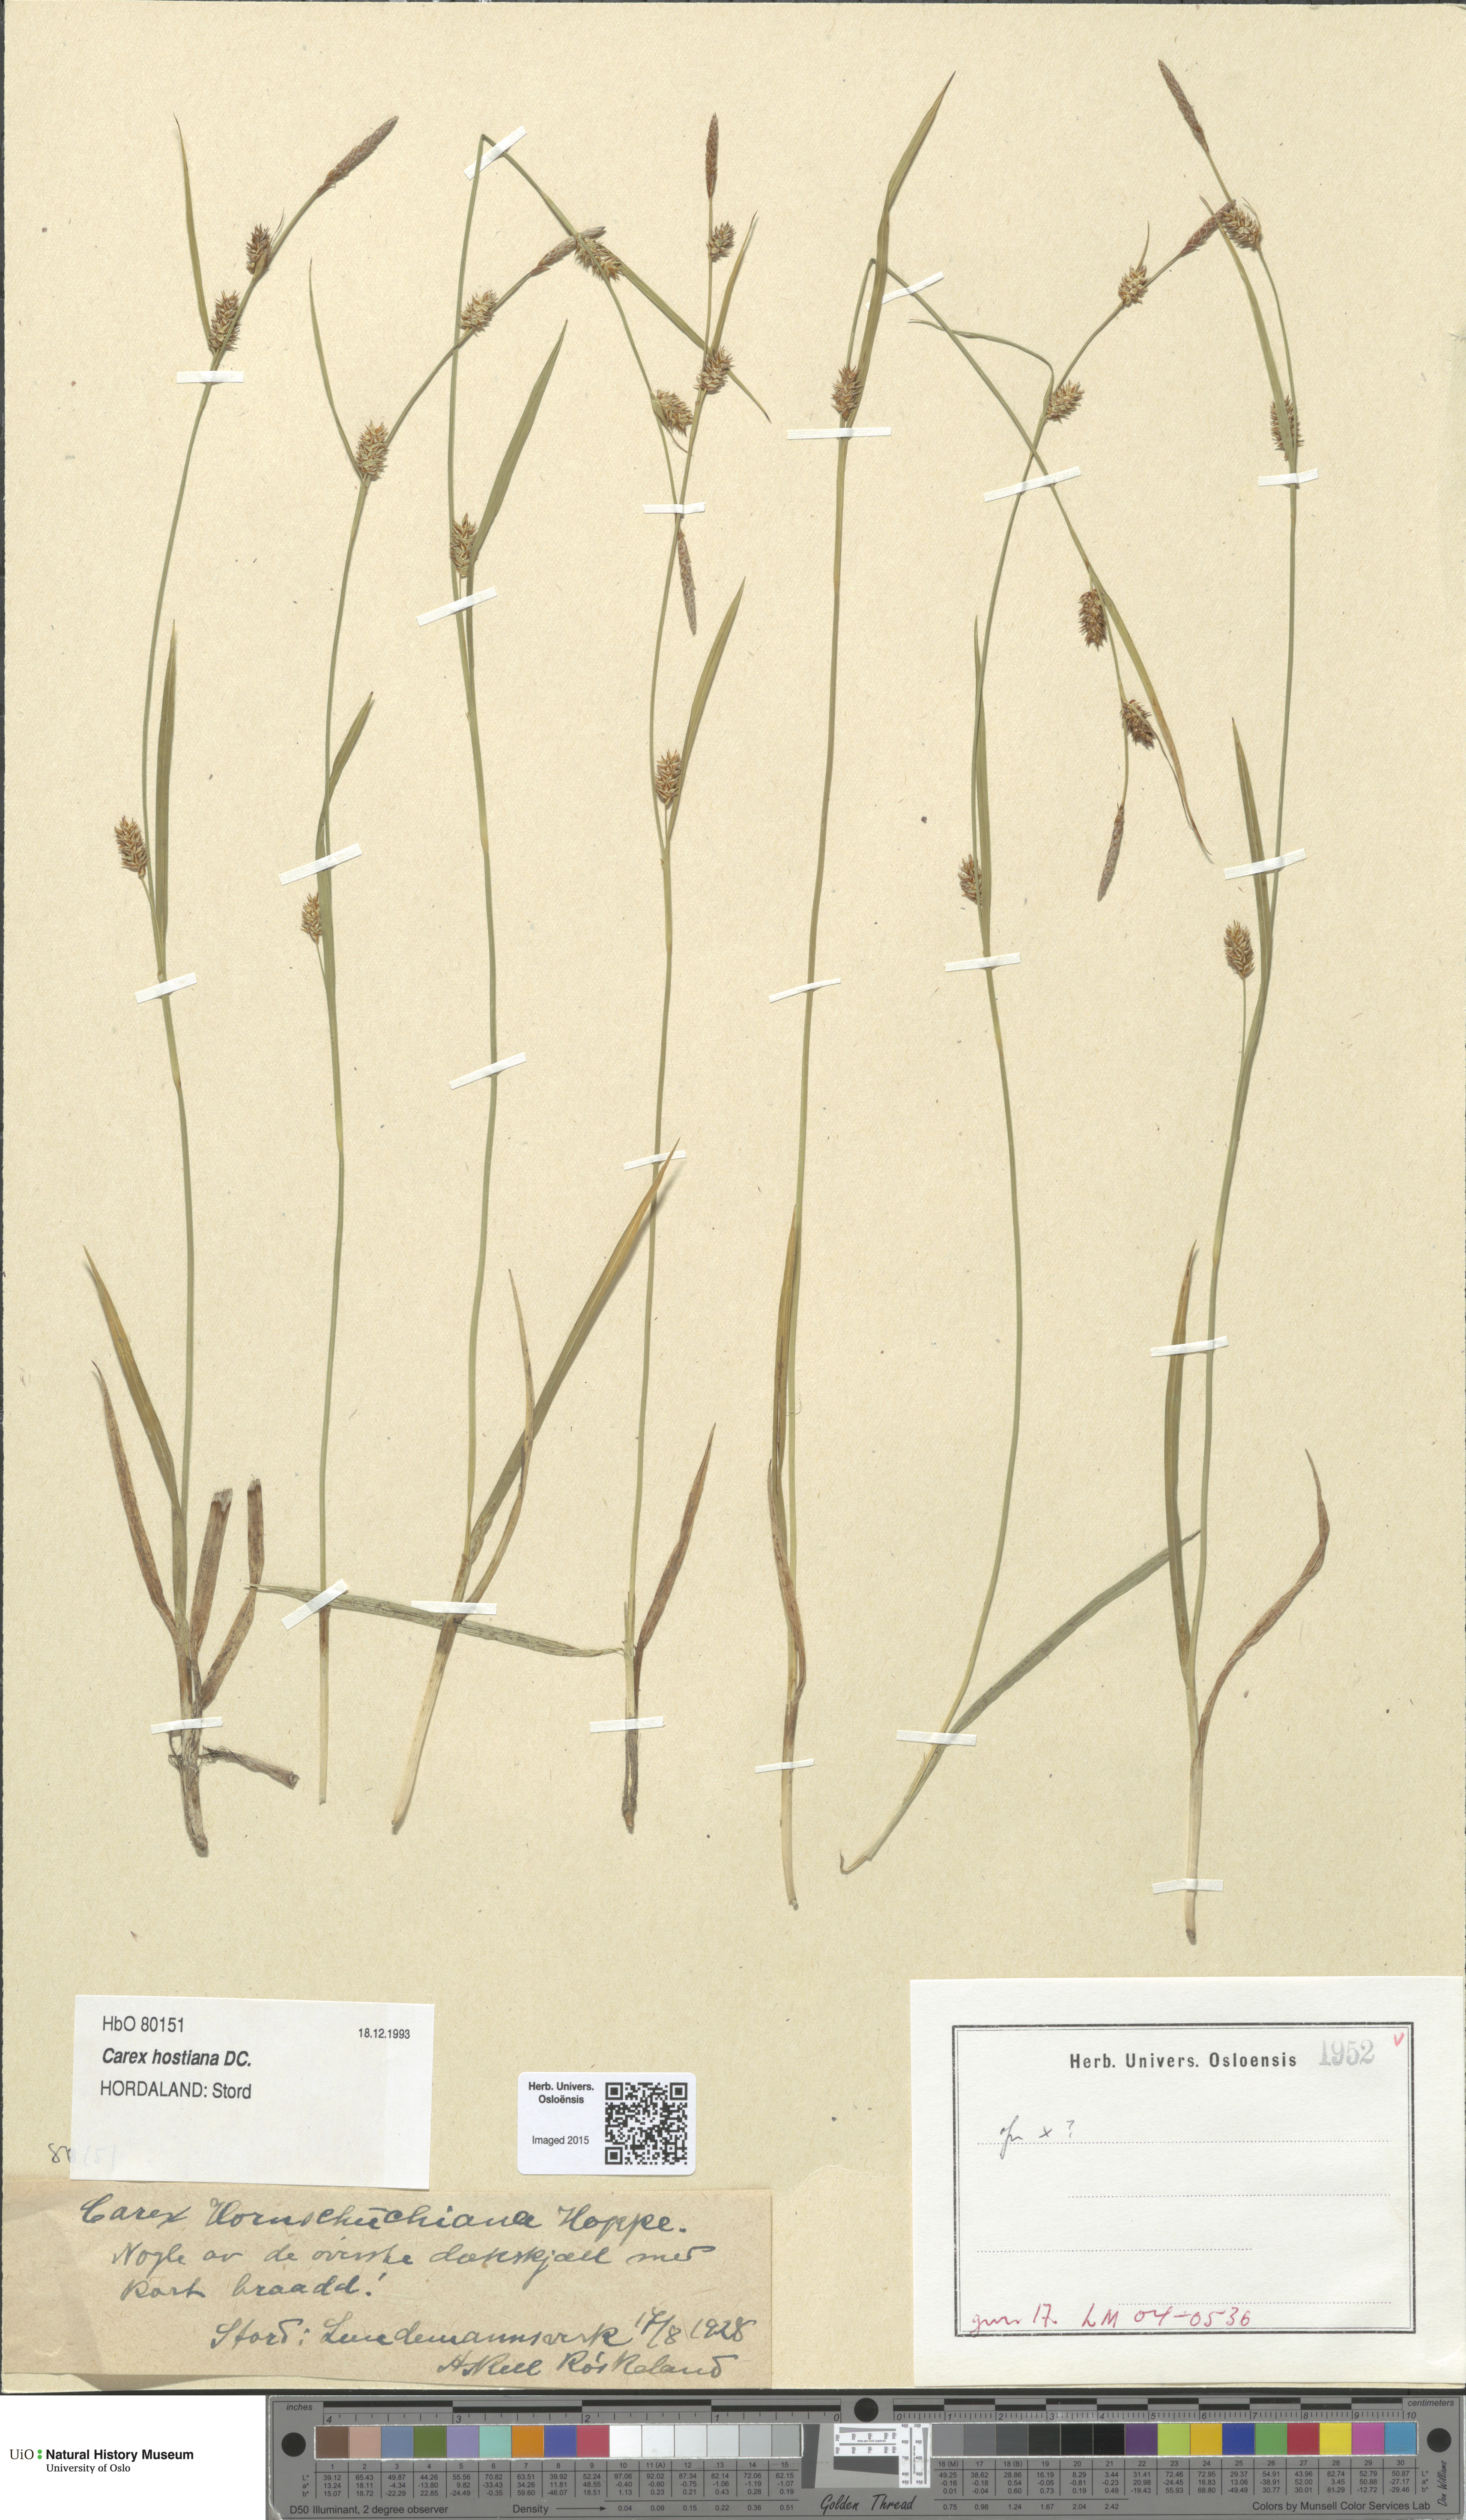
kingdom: Plantae
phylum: Tracheophyta
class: Liliopsida
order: Poales
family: Cyperaceae
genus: Carex
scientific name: Carex hostiana
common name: Tawny sedge
